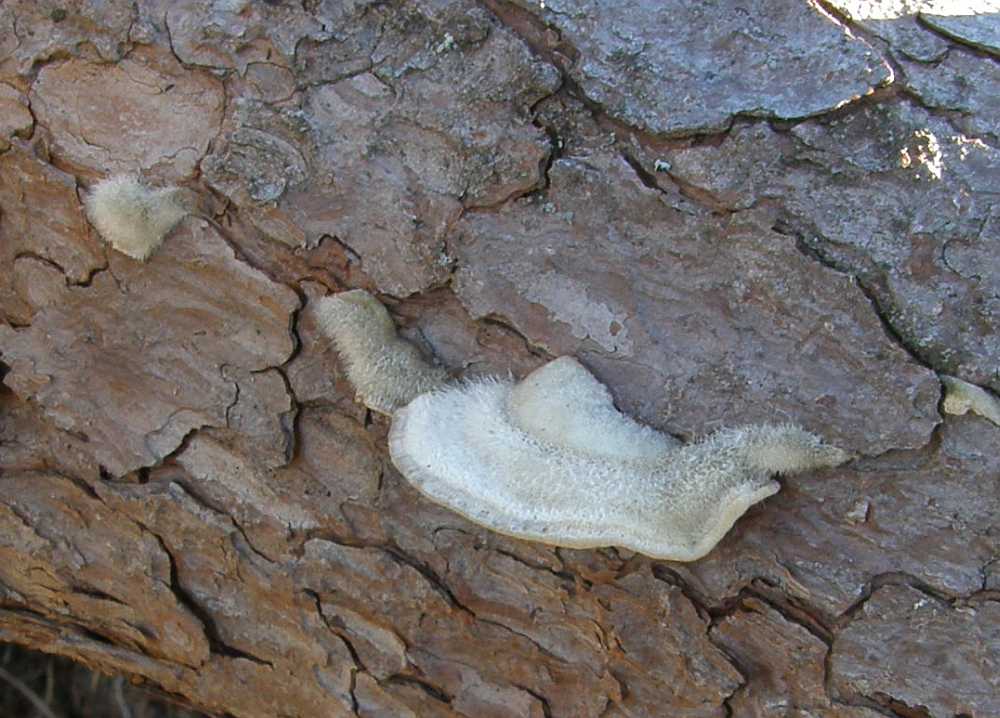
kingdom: Fungi
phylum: Basidiomycota
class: Agaricomycetes
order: Polyporales
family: Polyporaceae
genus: Trametes
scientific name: Trametes hirsuta
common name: håret læderporesvamp
